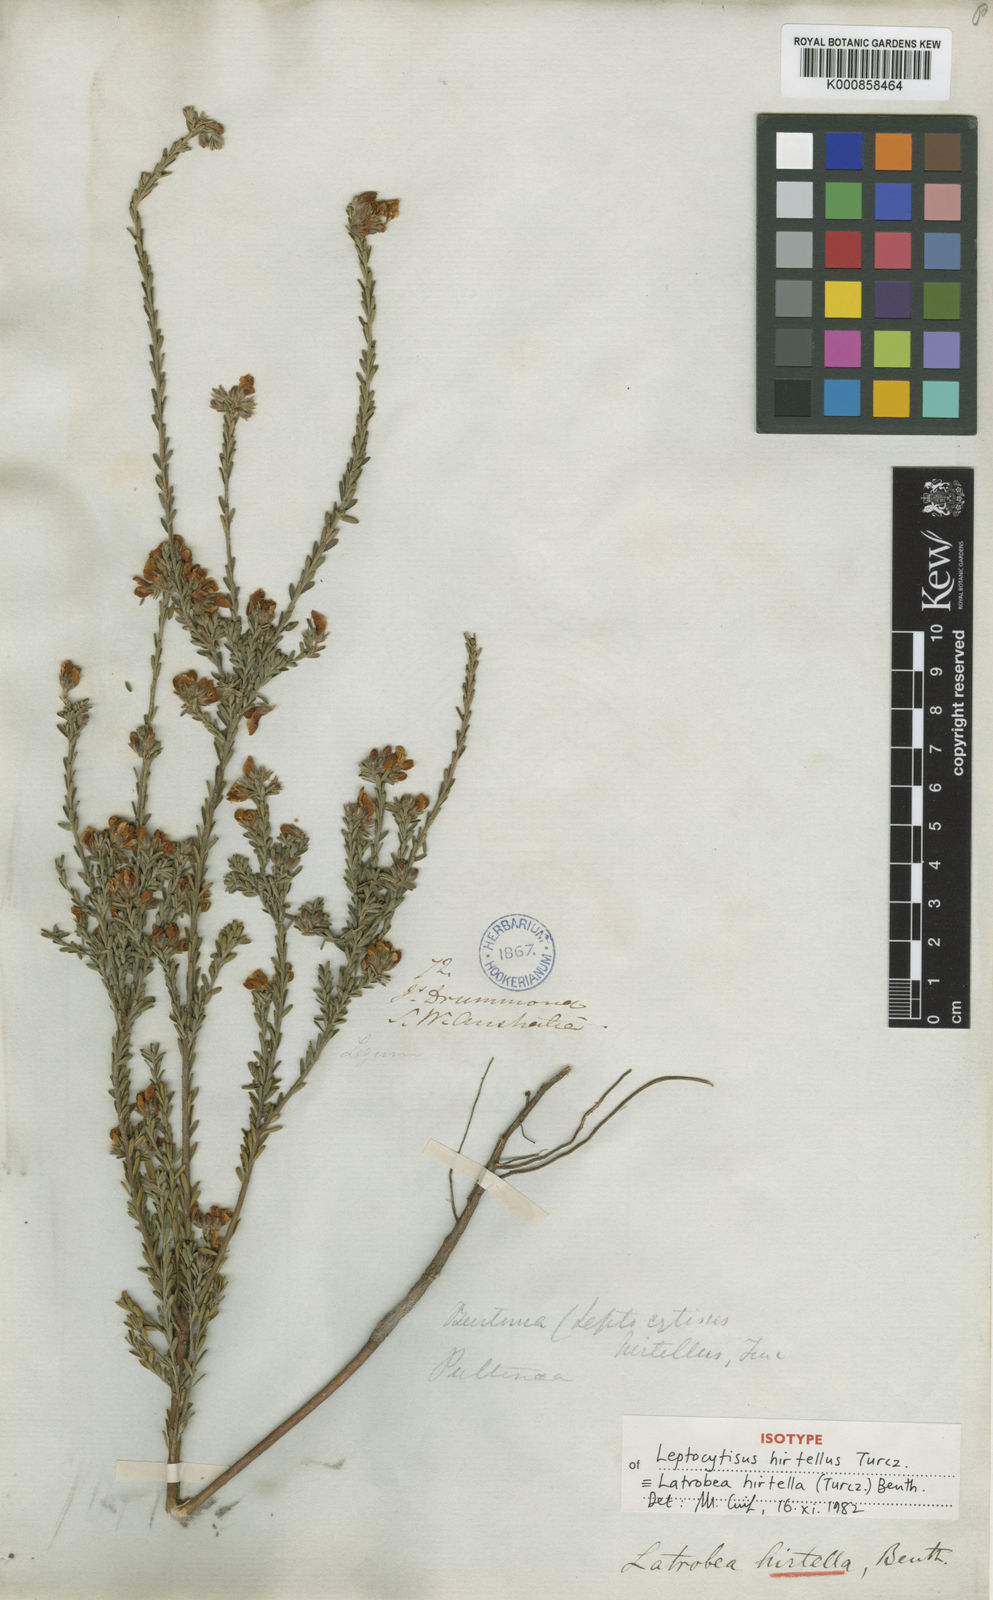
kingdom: Plantae
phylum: Tracheophyta
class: Magnoliopsida
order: Fabales
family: Fabaceae
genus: Latrobea
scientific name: Latrobea hirtella
